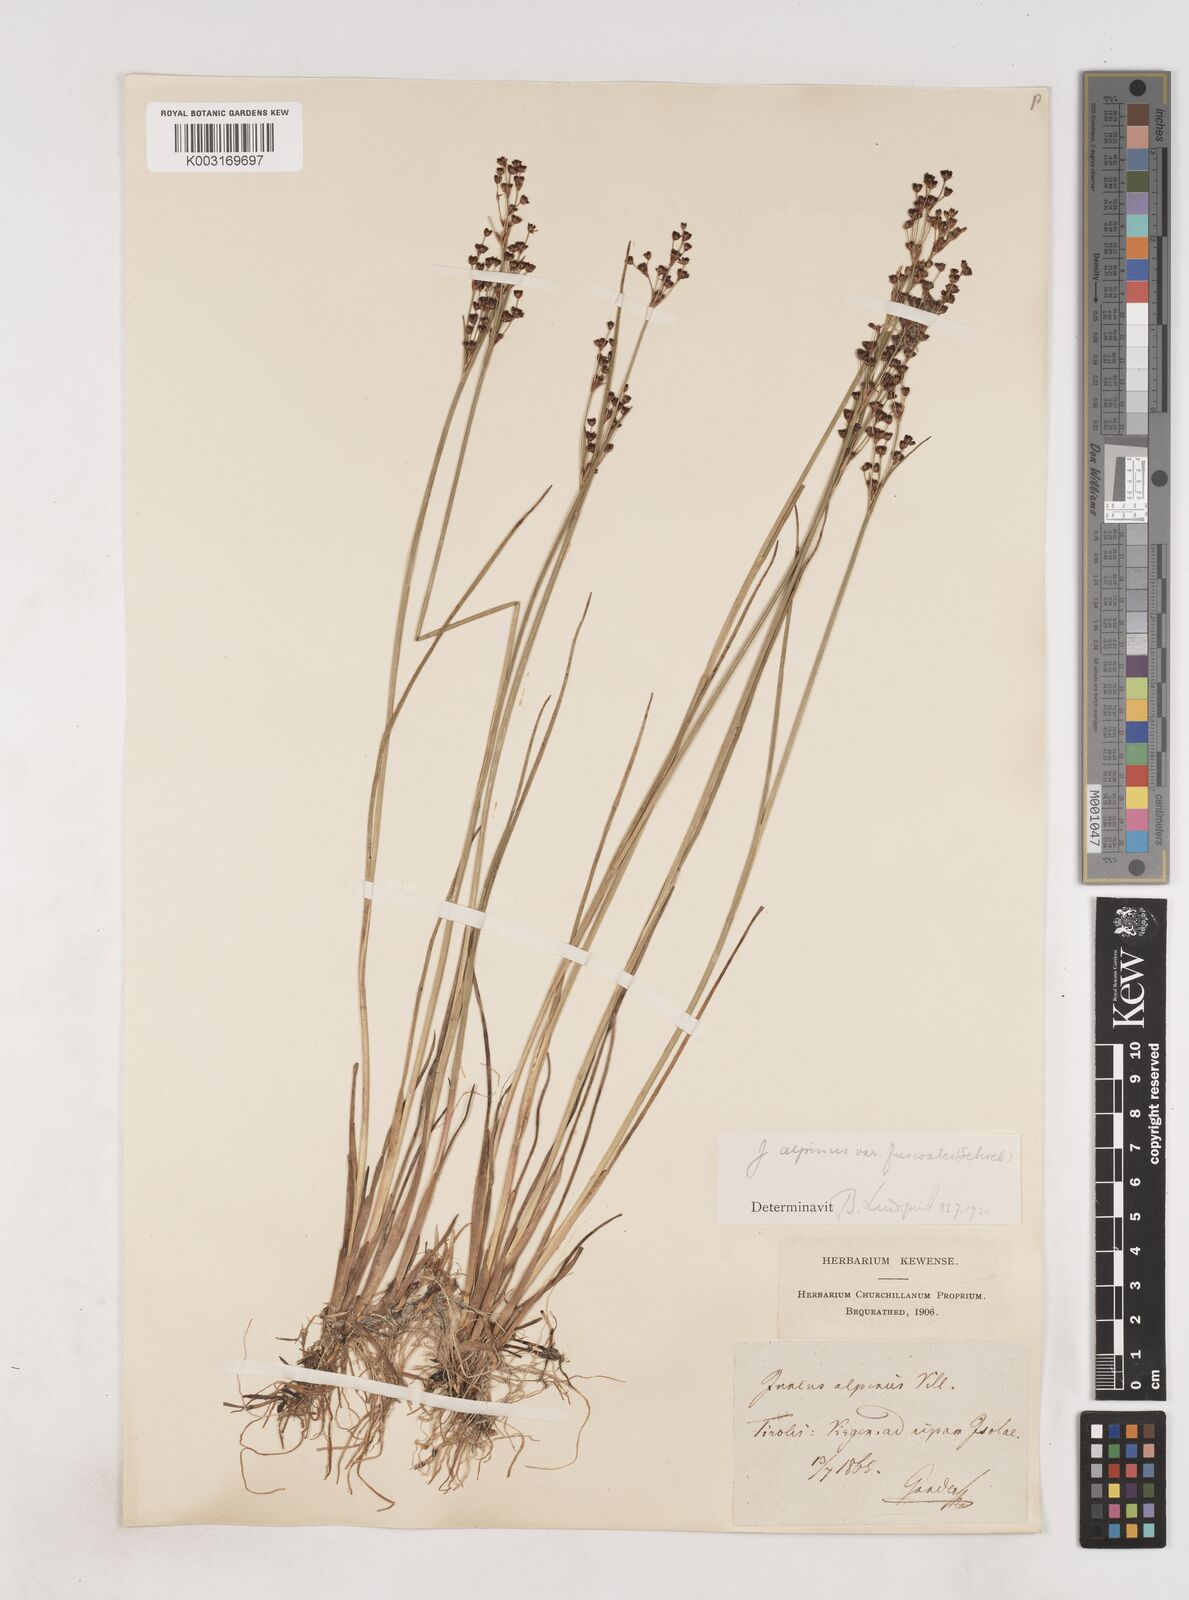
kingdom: Plantae
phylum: Tracheophyta
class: Liliopsida
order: Poales
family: Juncaceae
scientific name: Juncaceae
